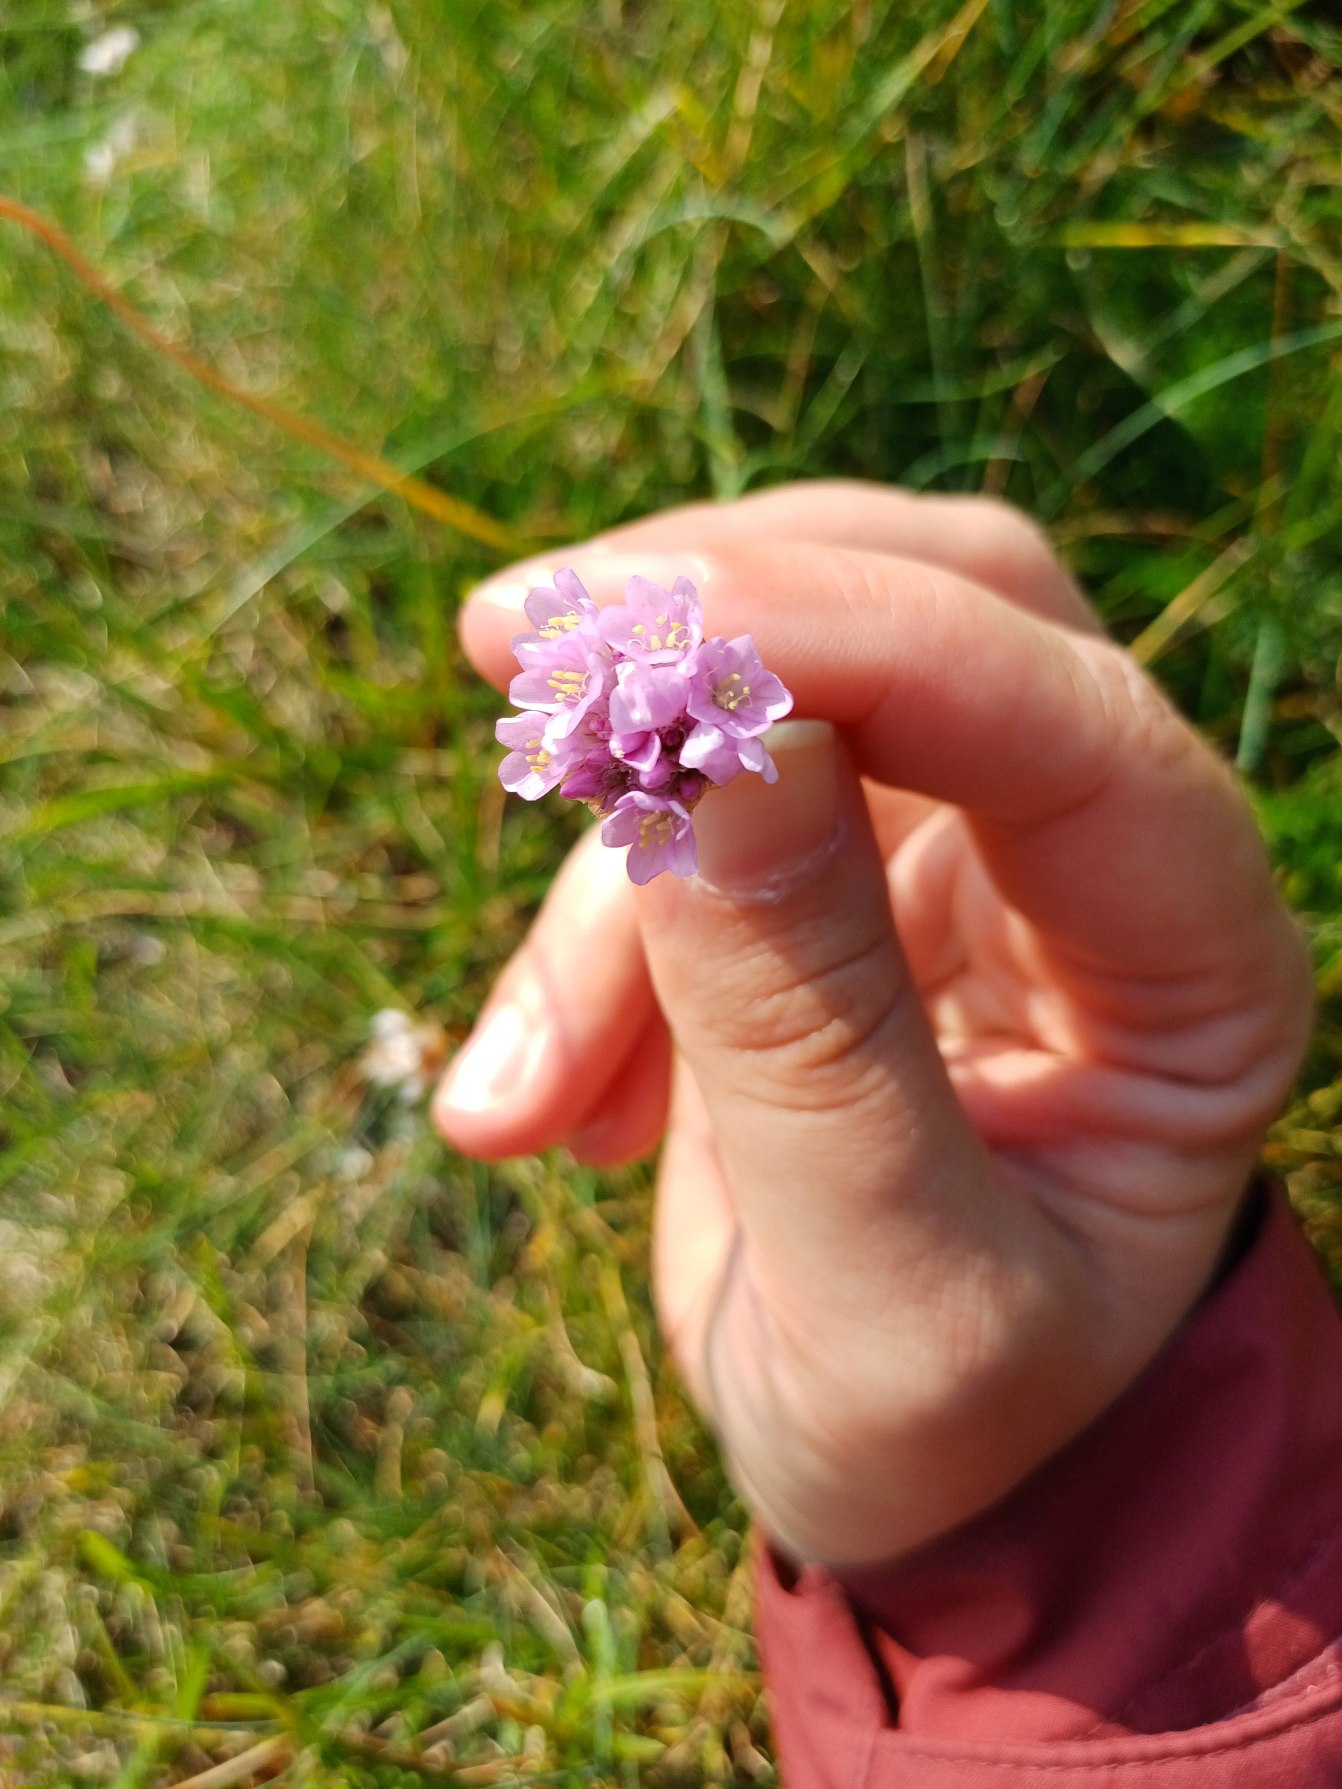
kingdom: Plantae
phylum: Tracheophyta
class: Magnoliopsida
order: Caryophyllales
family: Plumbaginaceae
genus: Armeria
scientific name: Armeria maritima
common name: Engelskgræs
